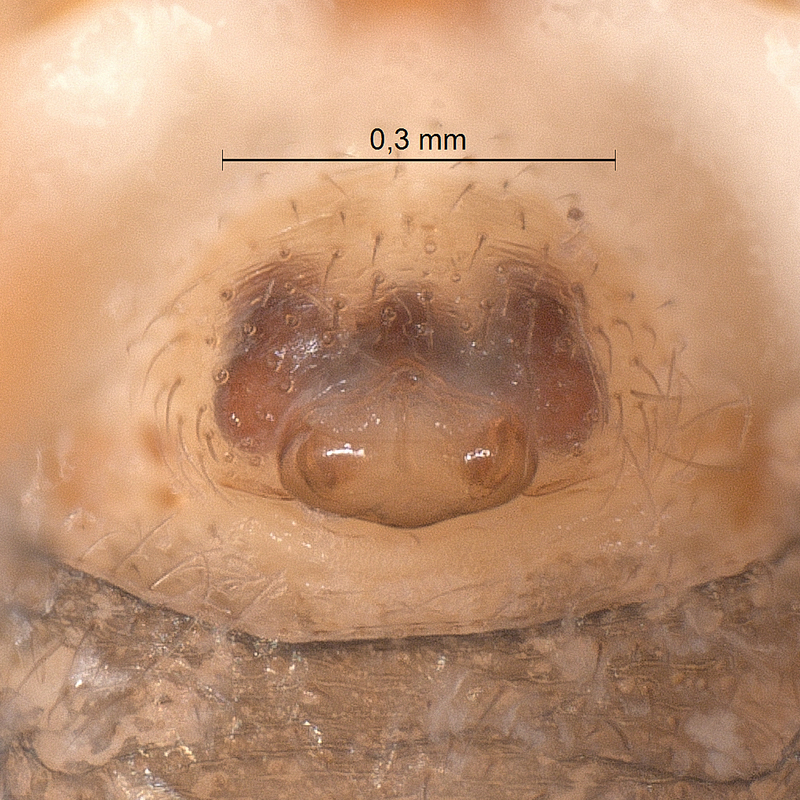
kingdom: Animalia
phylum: Arthropoda
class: Arachnida
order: Araneae
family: Linyphiidae
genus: Walckenaeria
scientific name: Walckenaeria antica
